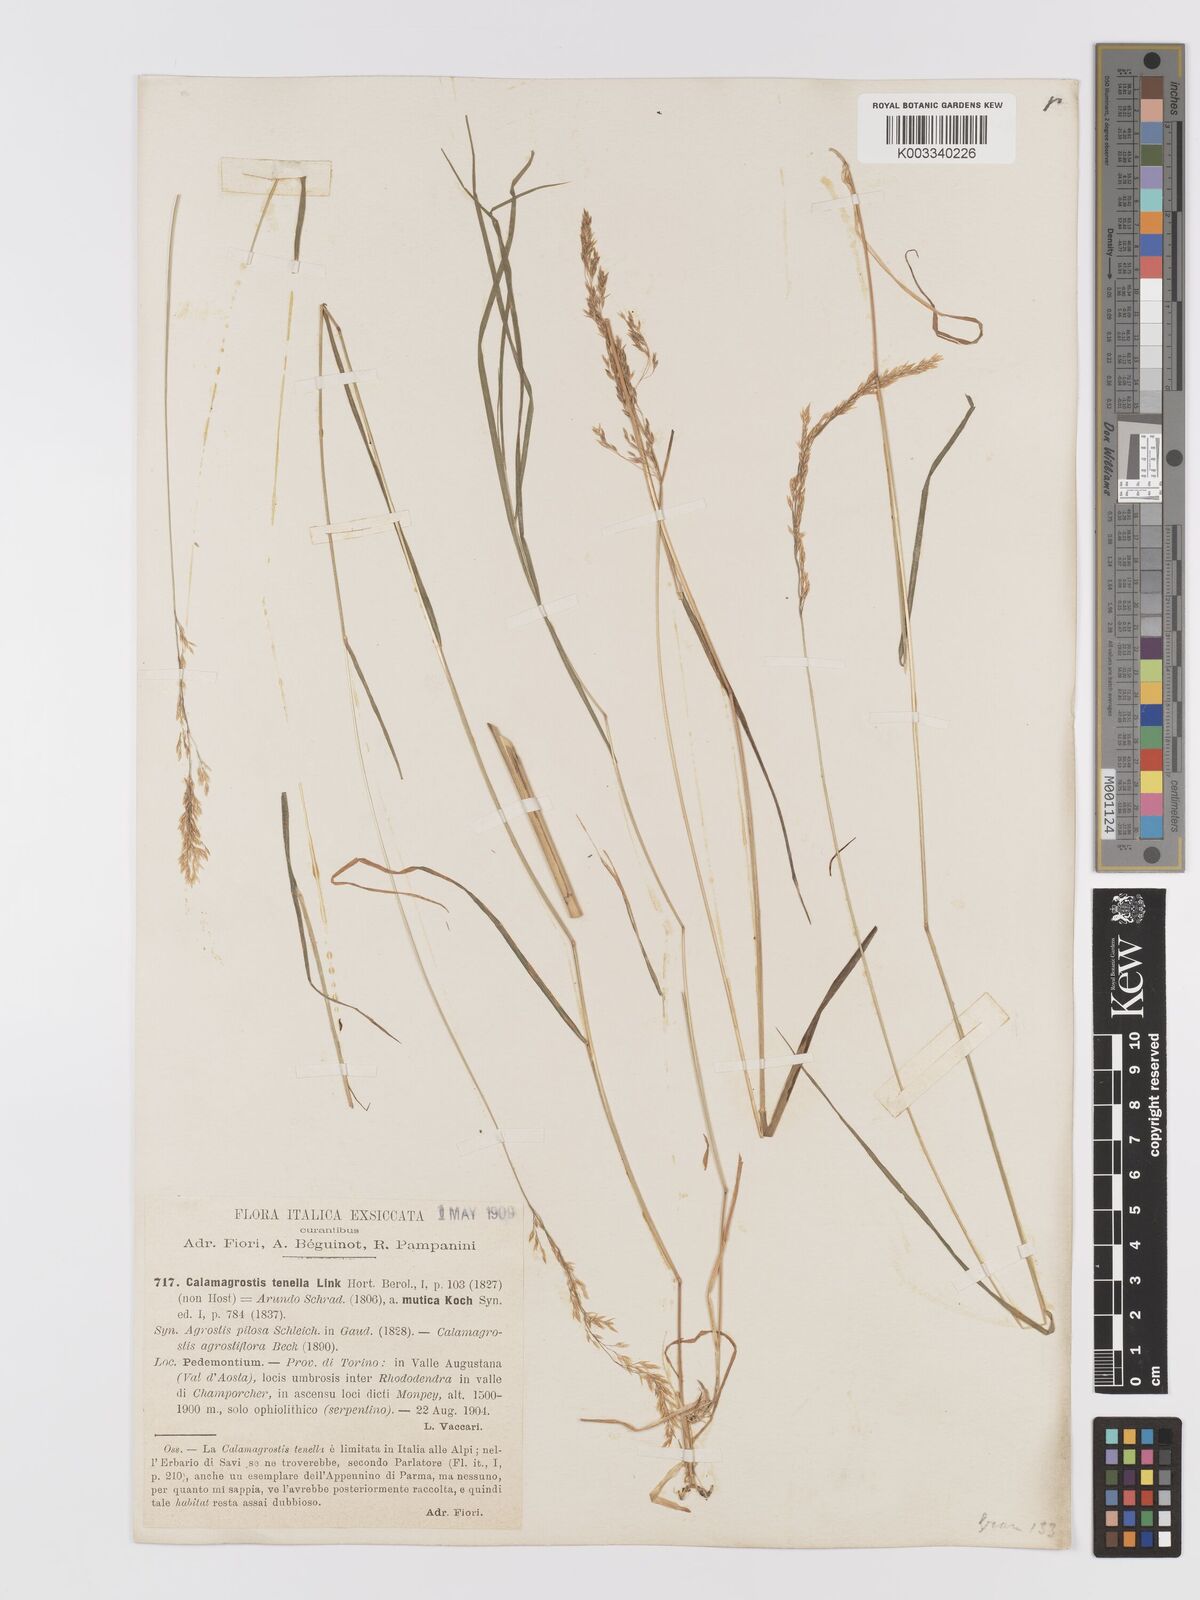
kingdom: Plantae
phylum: Tracheophyta
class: Liliopsida
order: Poales
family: Poaceae
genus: Agrostis
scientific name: Agrostis schraderiana
